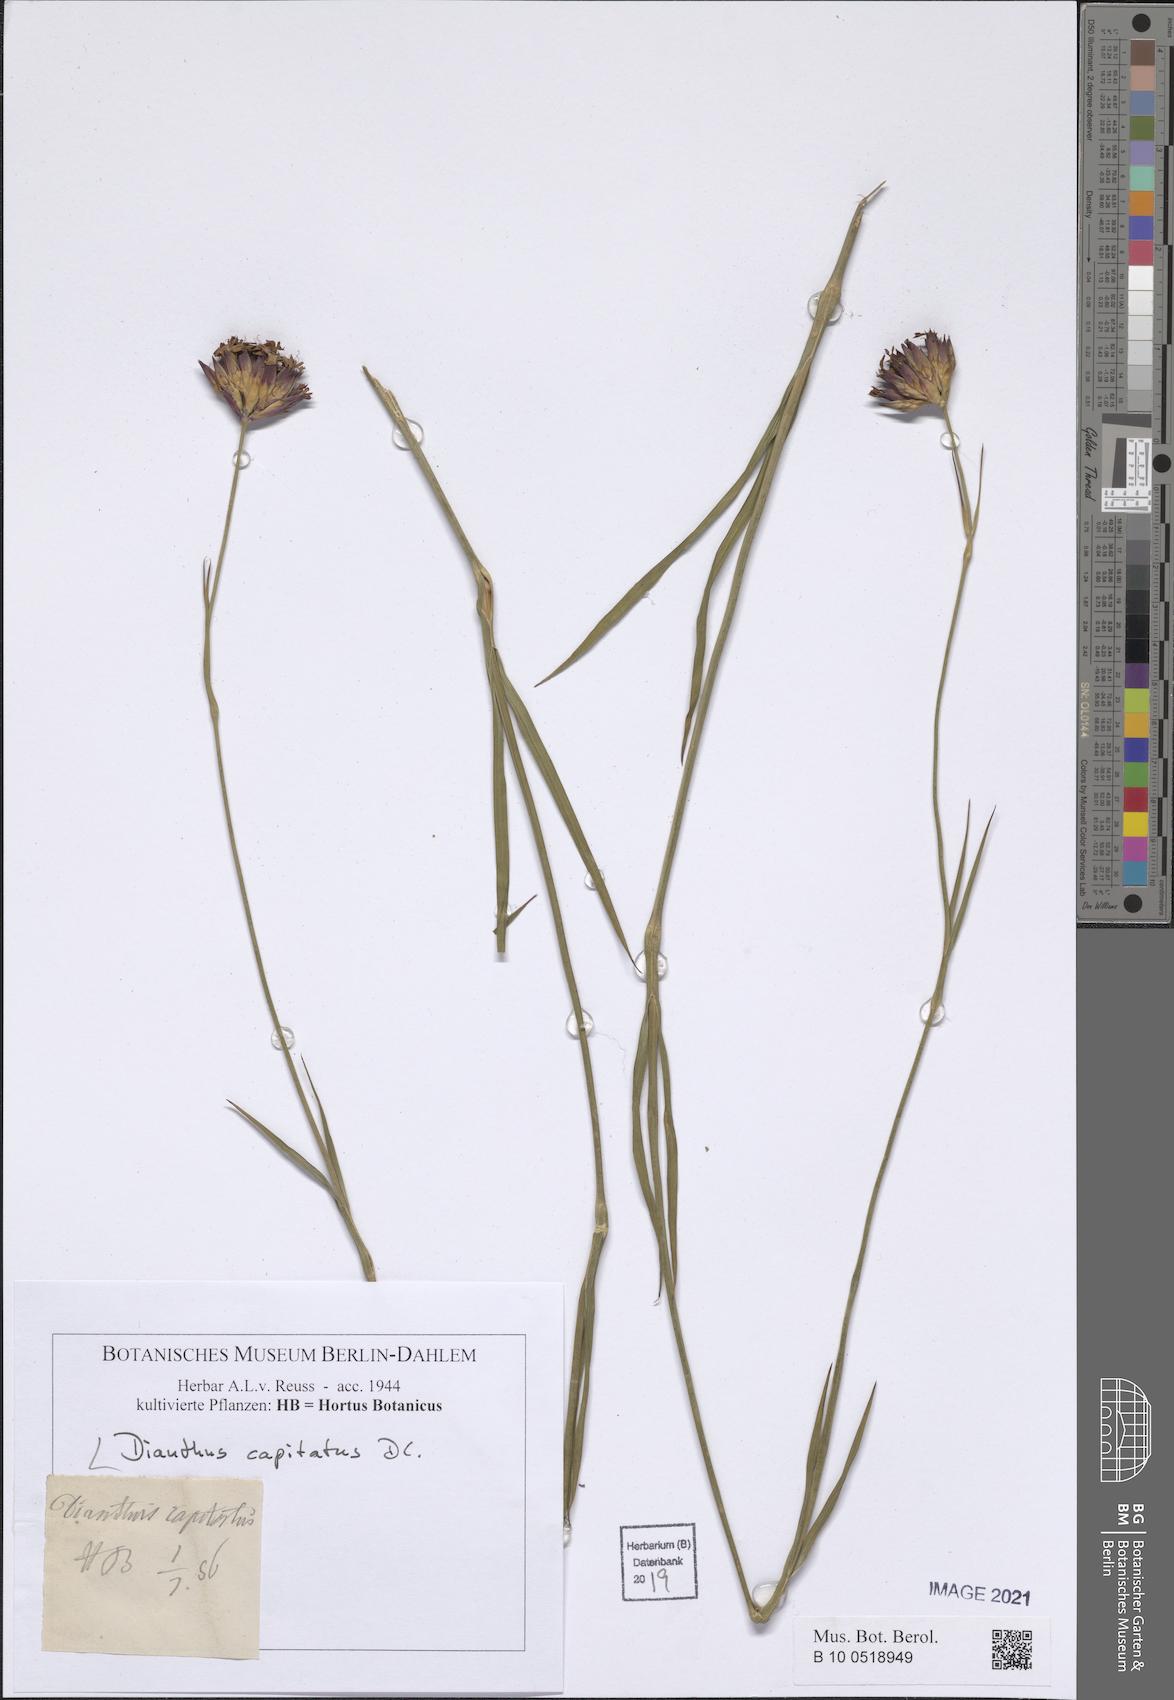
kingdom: Plantae
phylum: Tracheophyta
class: Magnoliopsida
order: Caryophyllales
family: Caryophyllaceae
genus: Dianthus
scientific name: Dianthus capitatus
